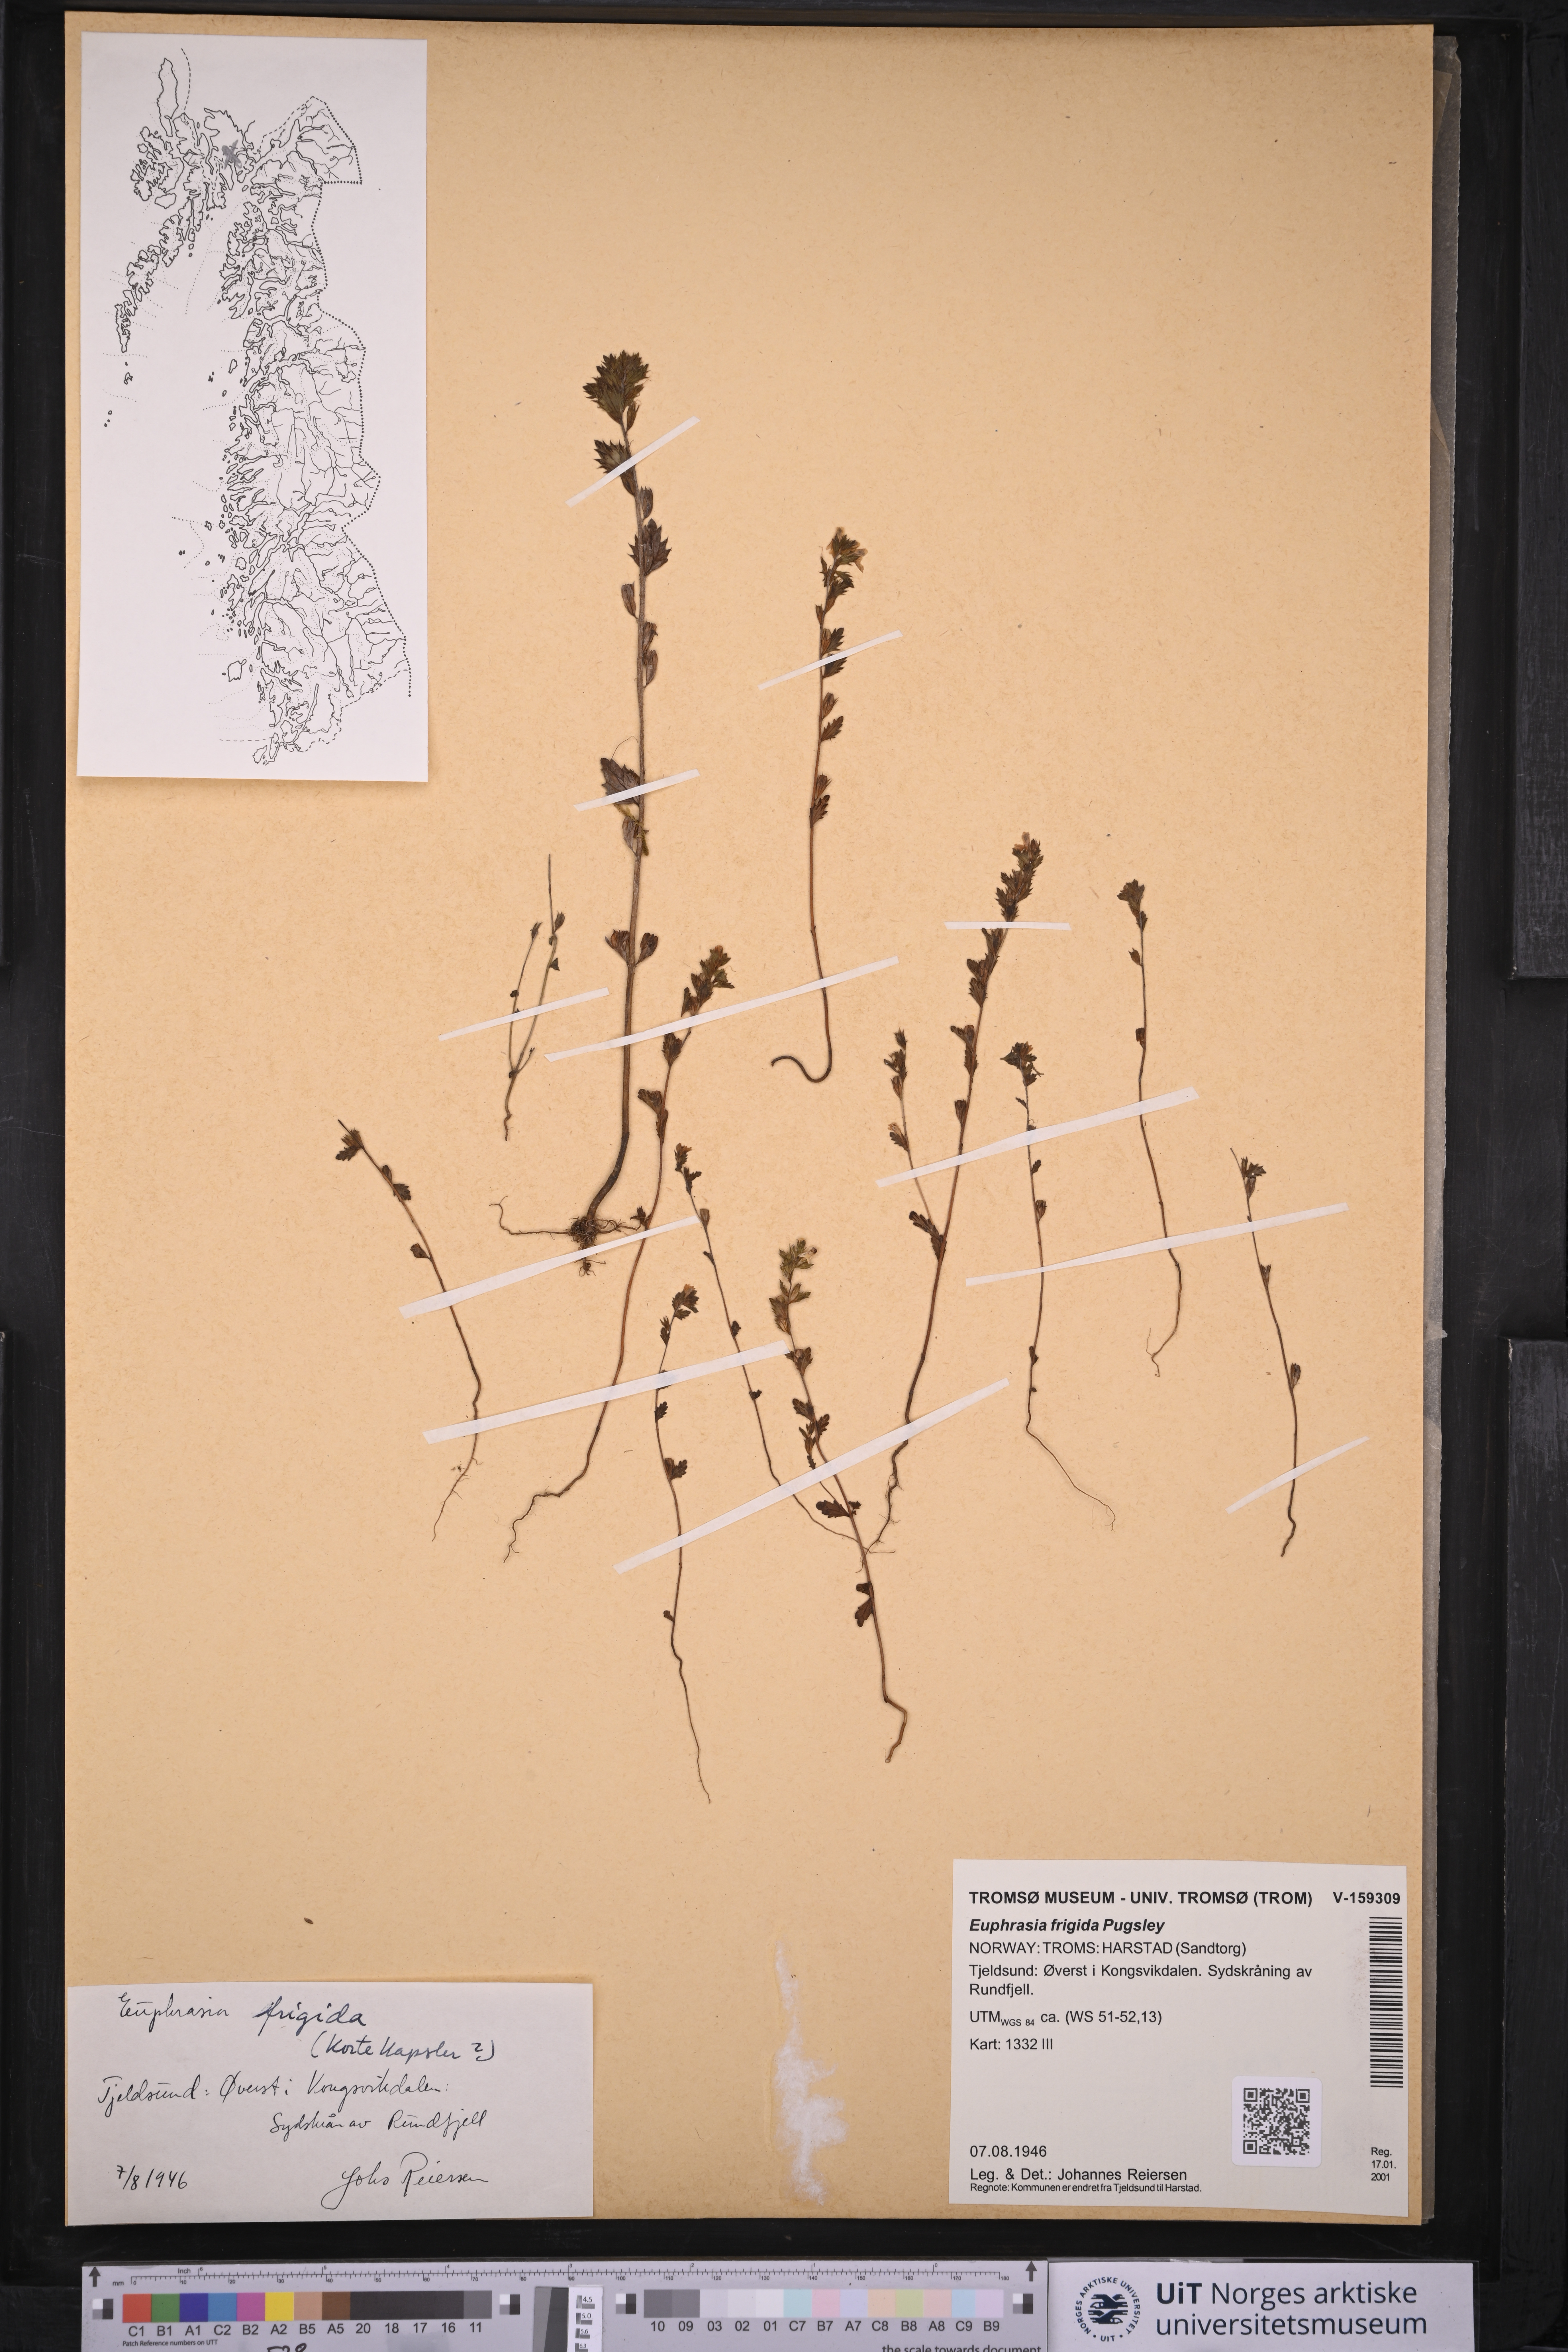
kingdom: Plantae
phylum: Tracheophyta
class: Magnoliopsida
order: Lamiales
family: Orobanchaceae
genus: Euphrasia
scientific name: Euphrasia frigida
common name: An eyebright
